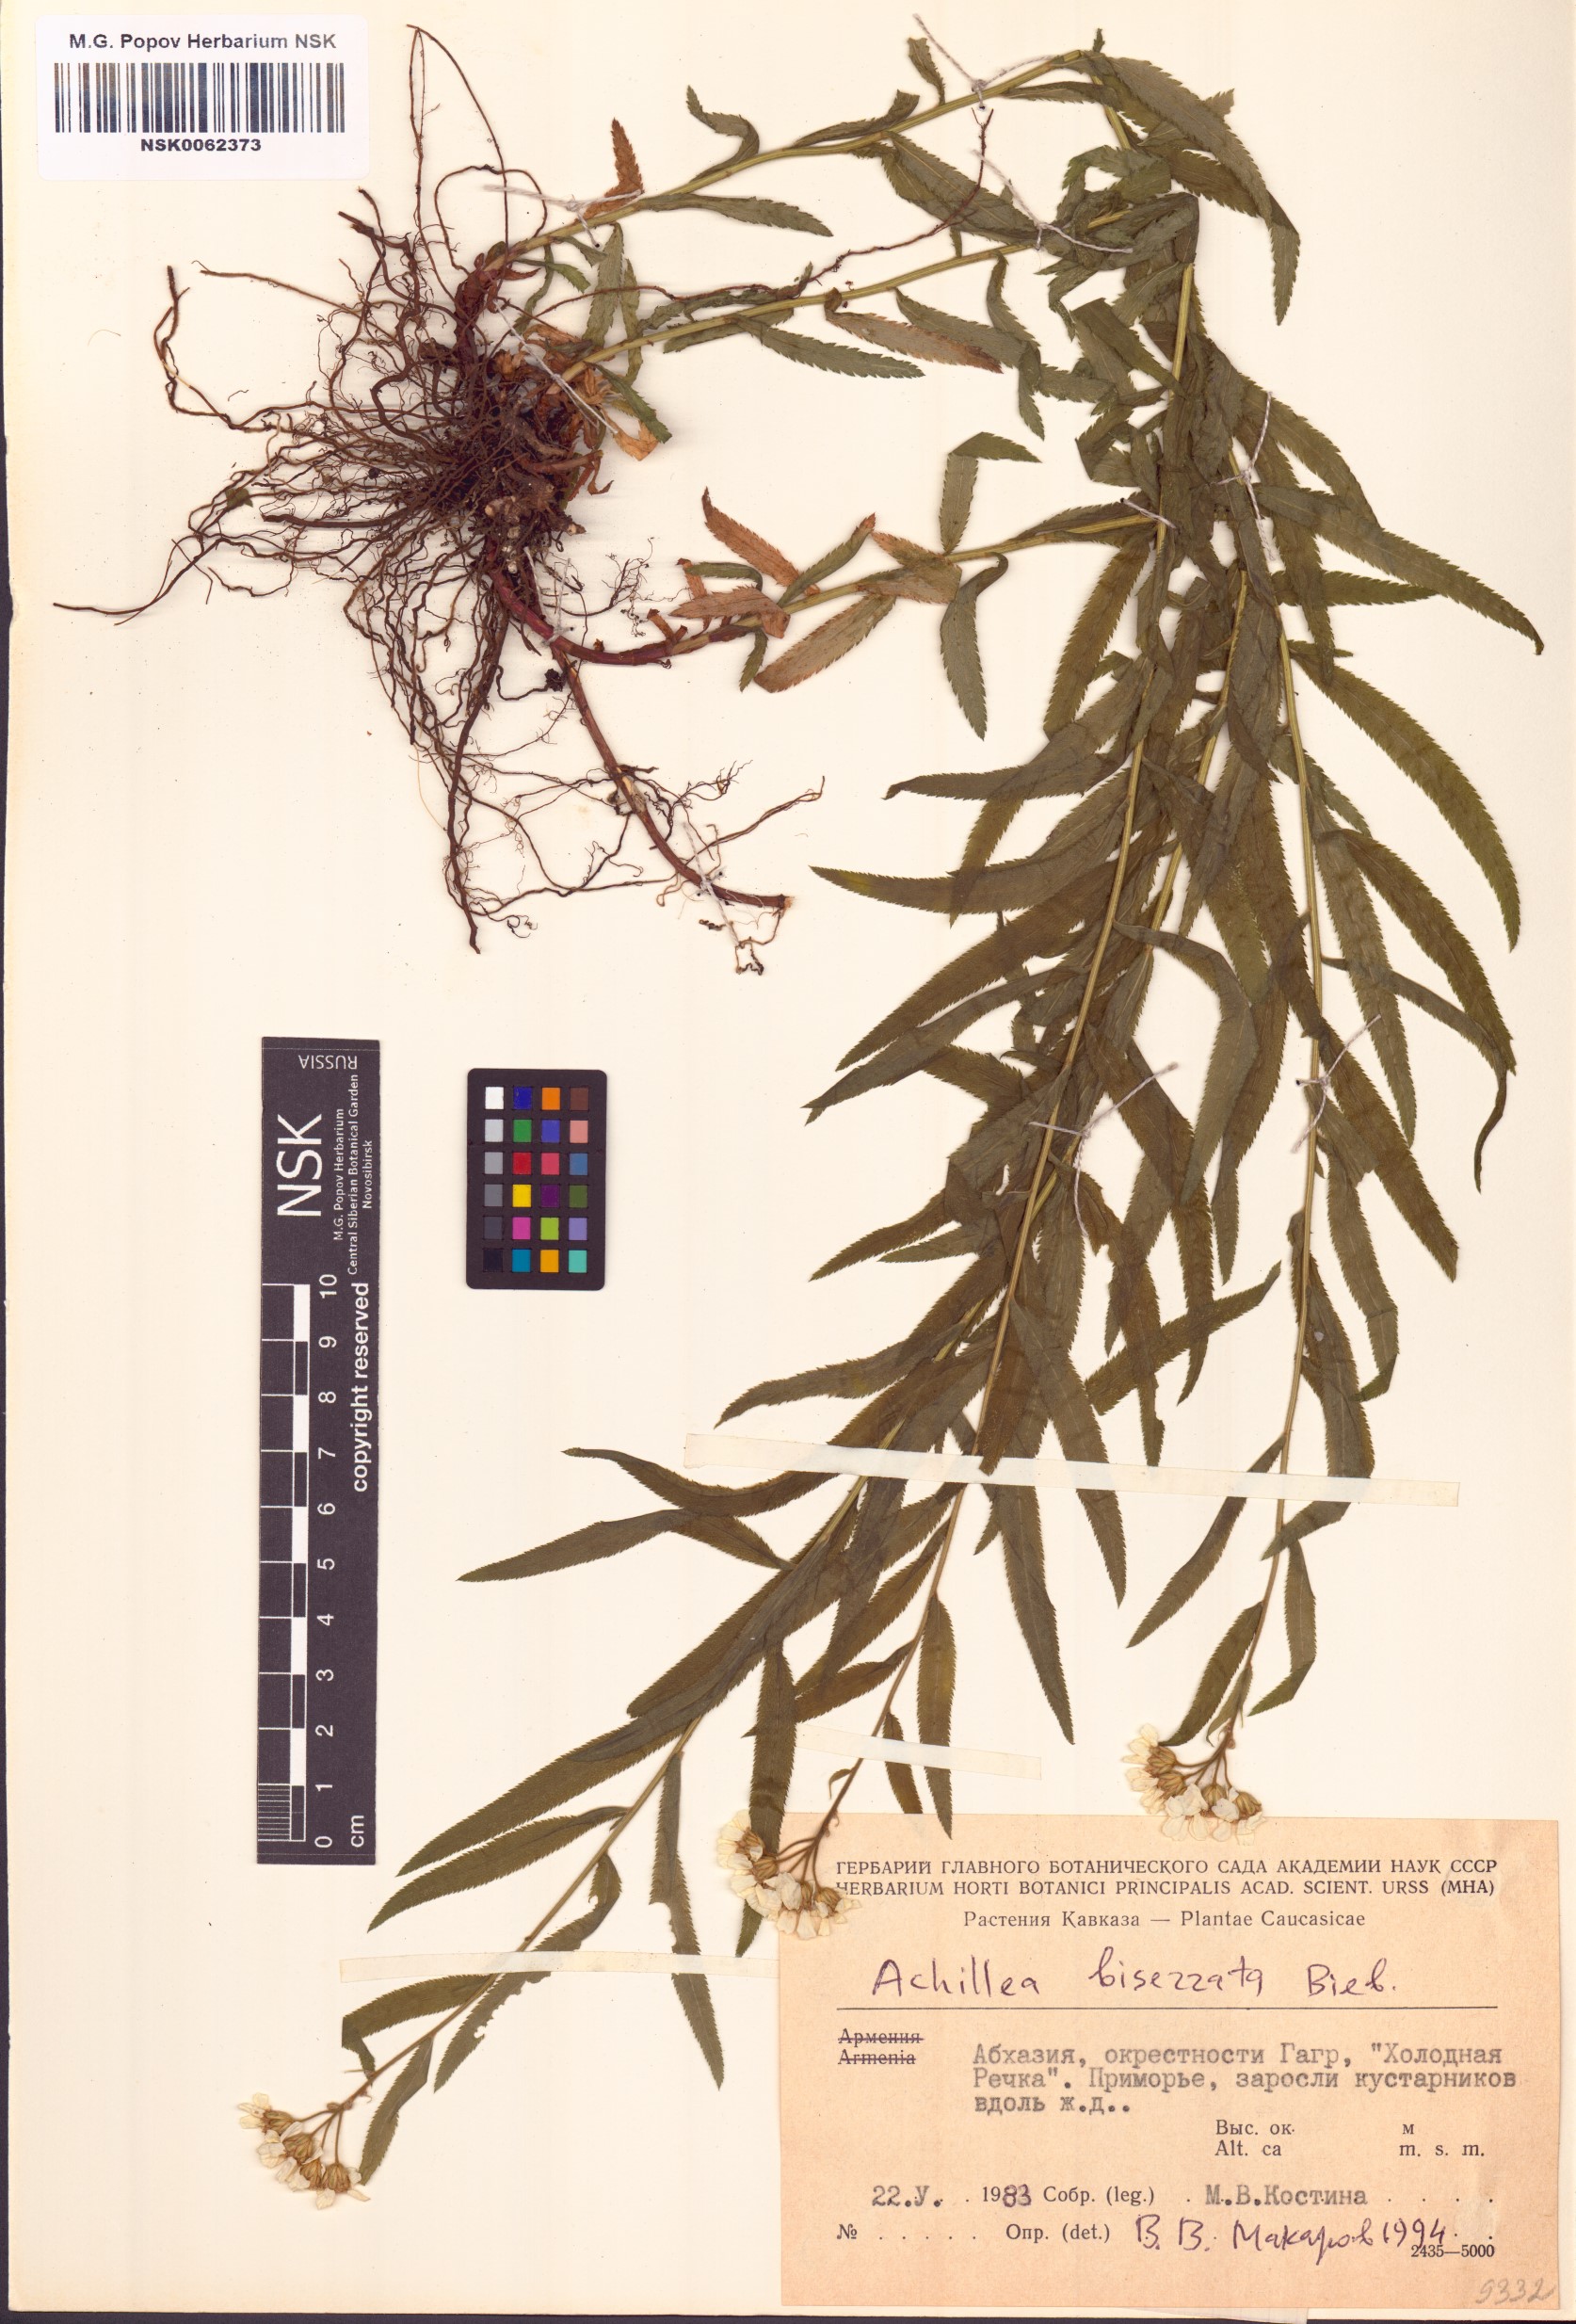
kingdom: Plantae
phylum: Tracheophyta
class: Magnoliopsida
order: Asterales
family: Asteraceae
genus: Achillea
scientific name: Achillea biserrata
